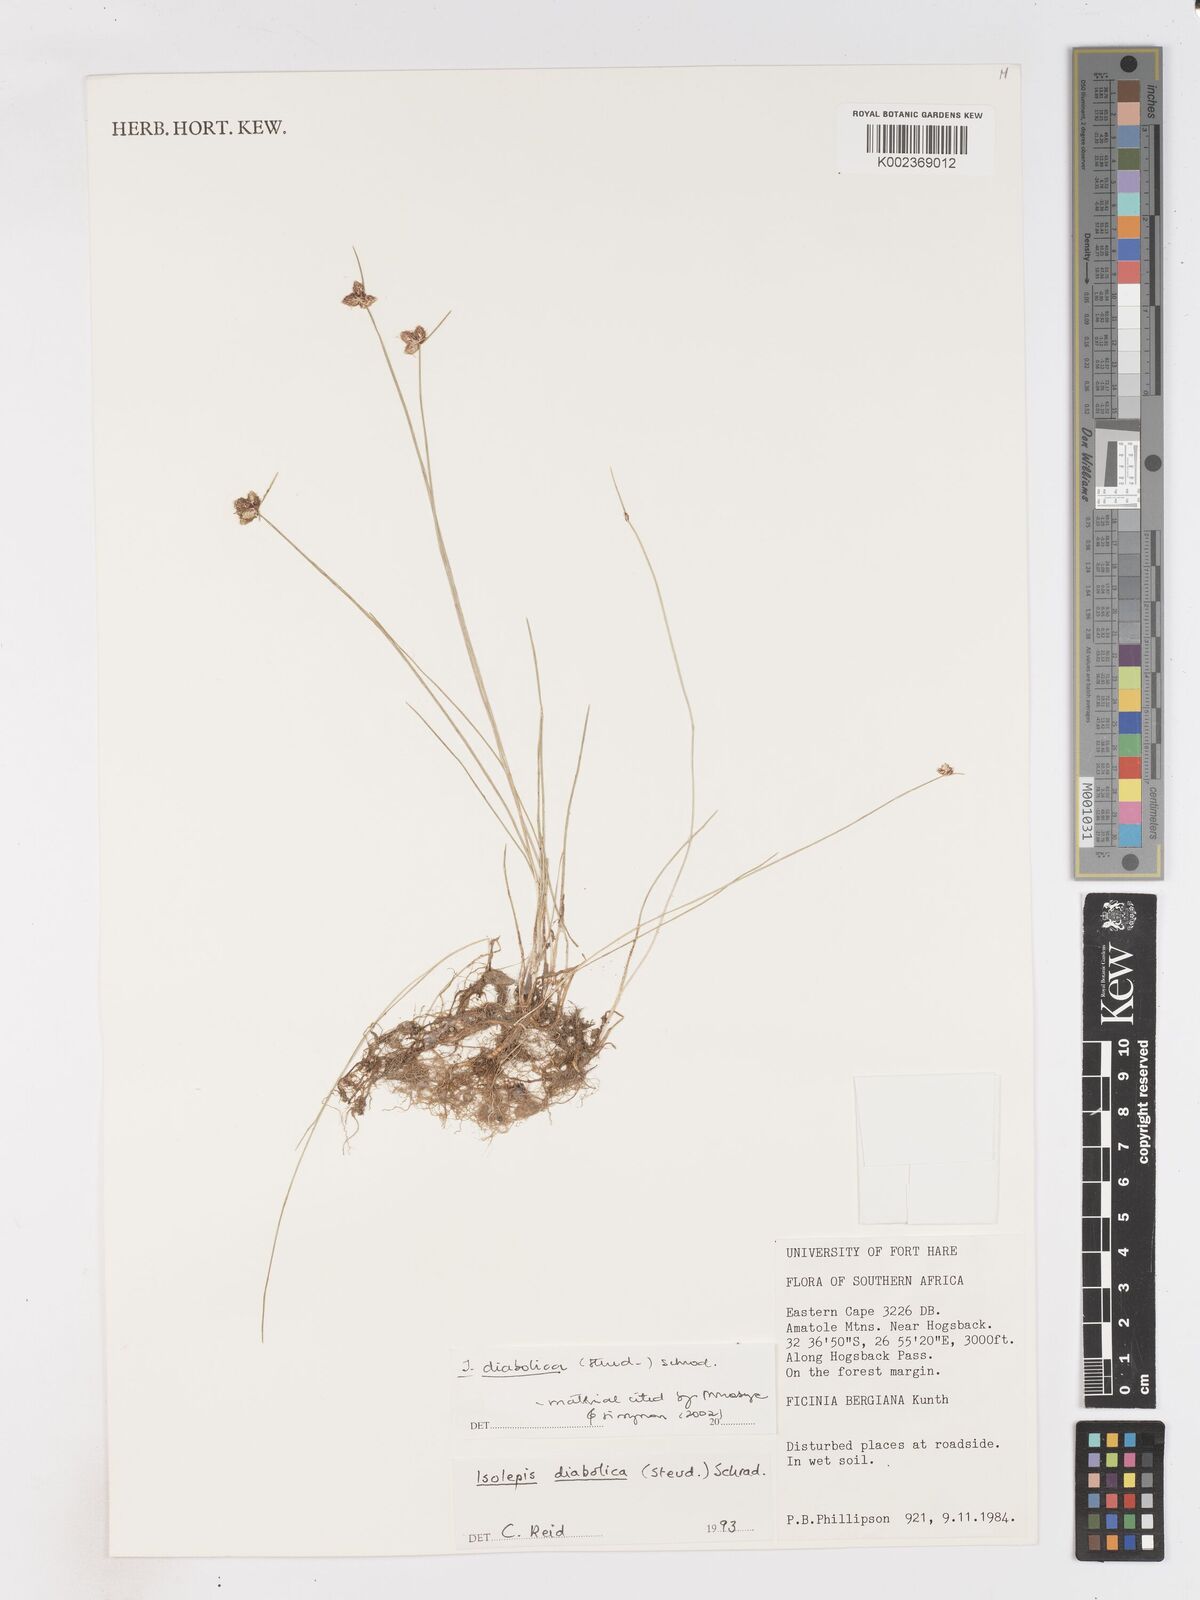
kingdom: Plantae
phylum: Tracheophyta
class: Liliopsida
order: Poales
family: Cyperaceae
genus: Isolepis
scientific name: Isolepis diabolica
